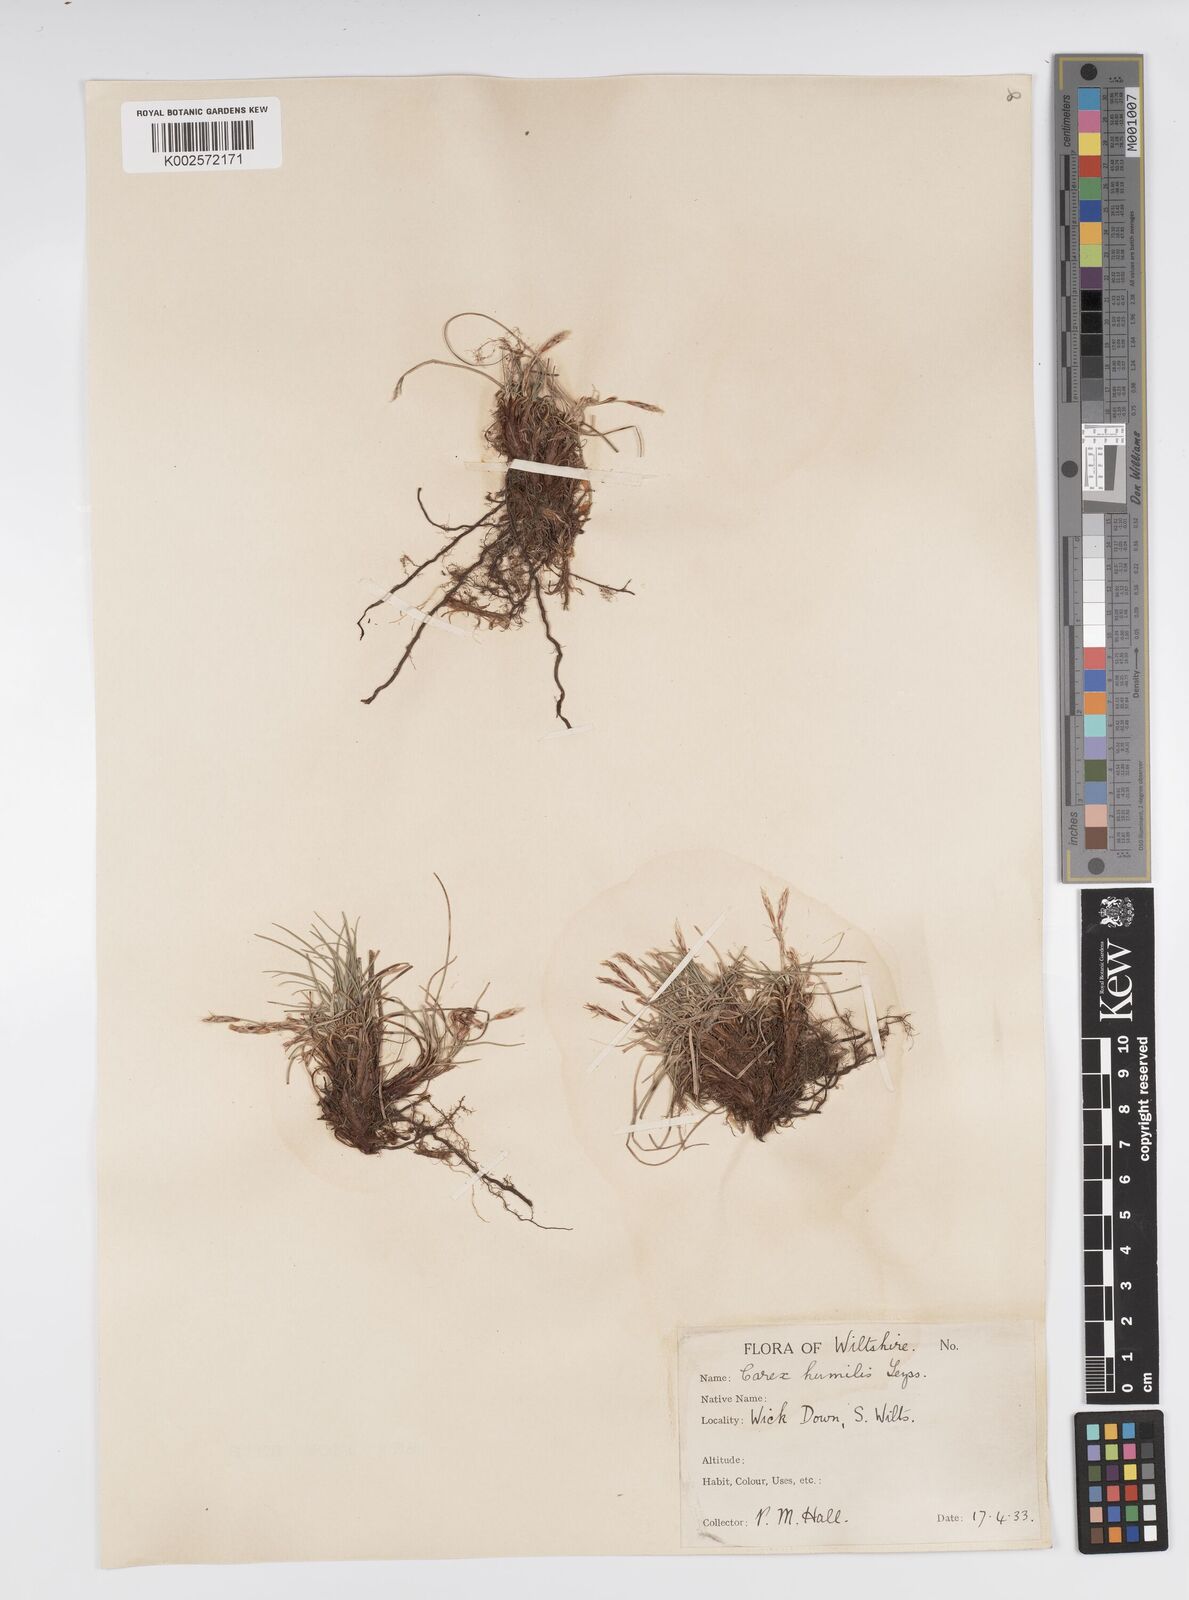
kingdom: Plantae
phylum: Tracheophyta
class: Liliopsida
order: Poales
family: Cyperaceae
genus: Carex
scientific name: Carex humilis
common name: Dwarf sedge
